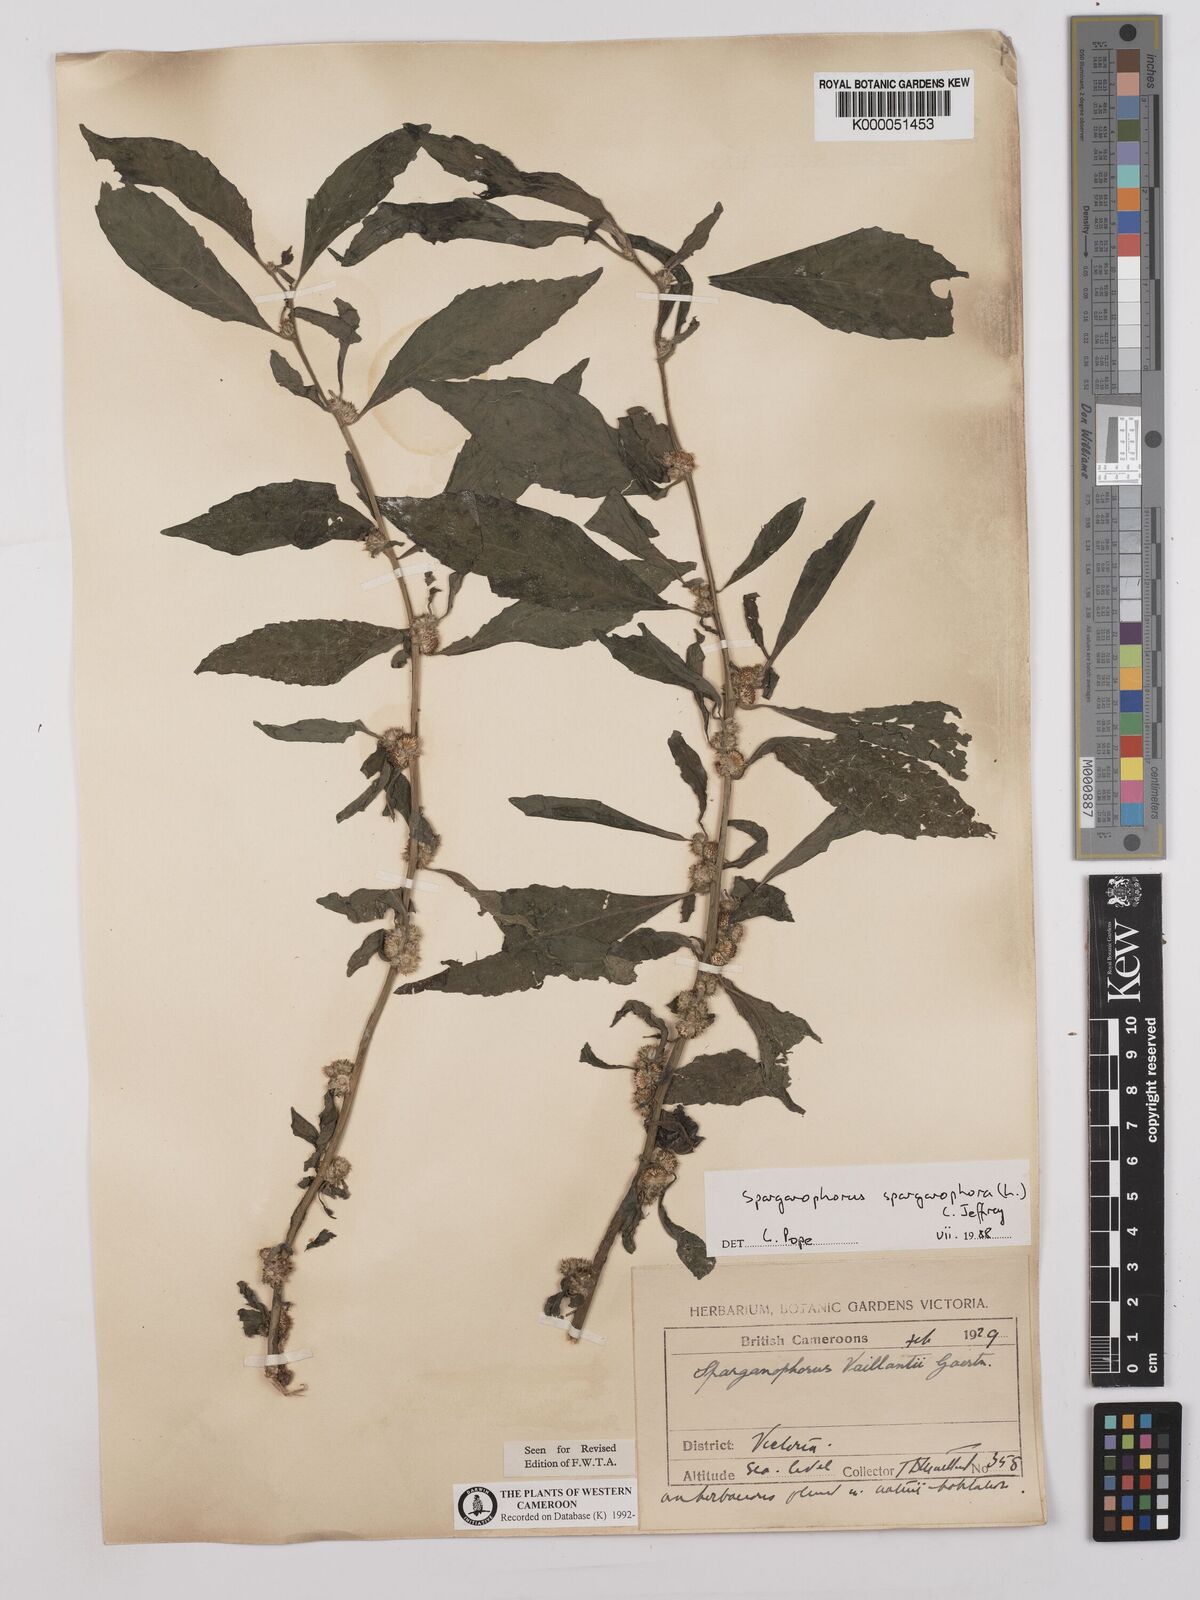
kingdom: Plantae
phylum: Tracheophyta
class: Magnoliopsida
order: Asterales
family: Asteraceae
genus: Struchium
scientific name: Struchium sparganophorum
